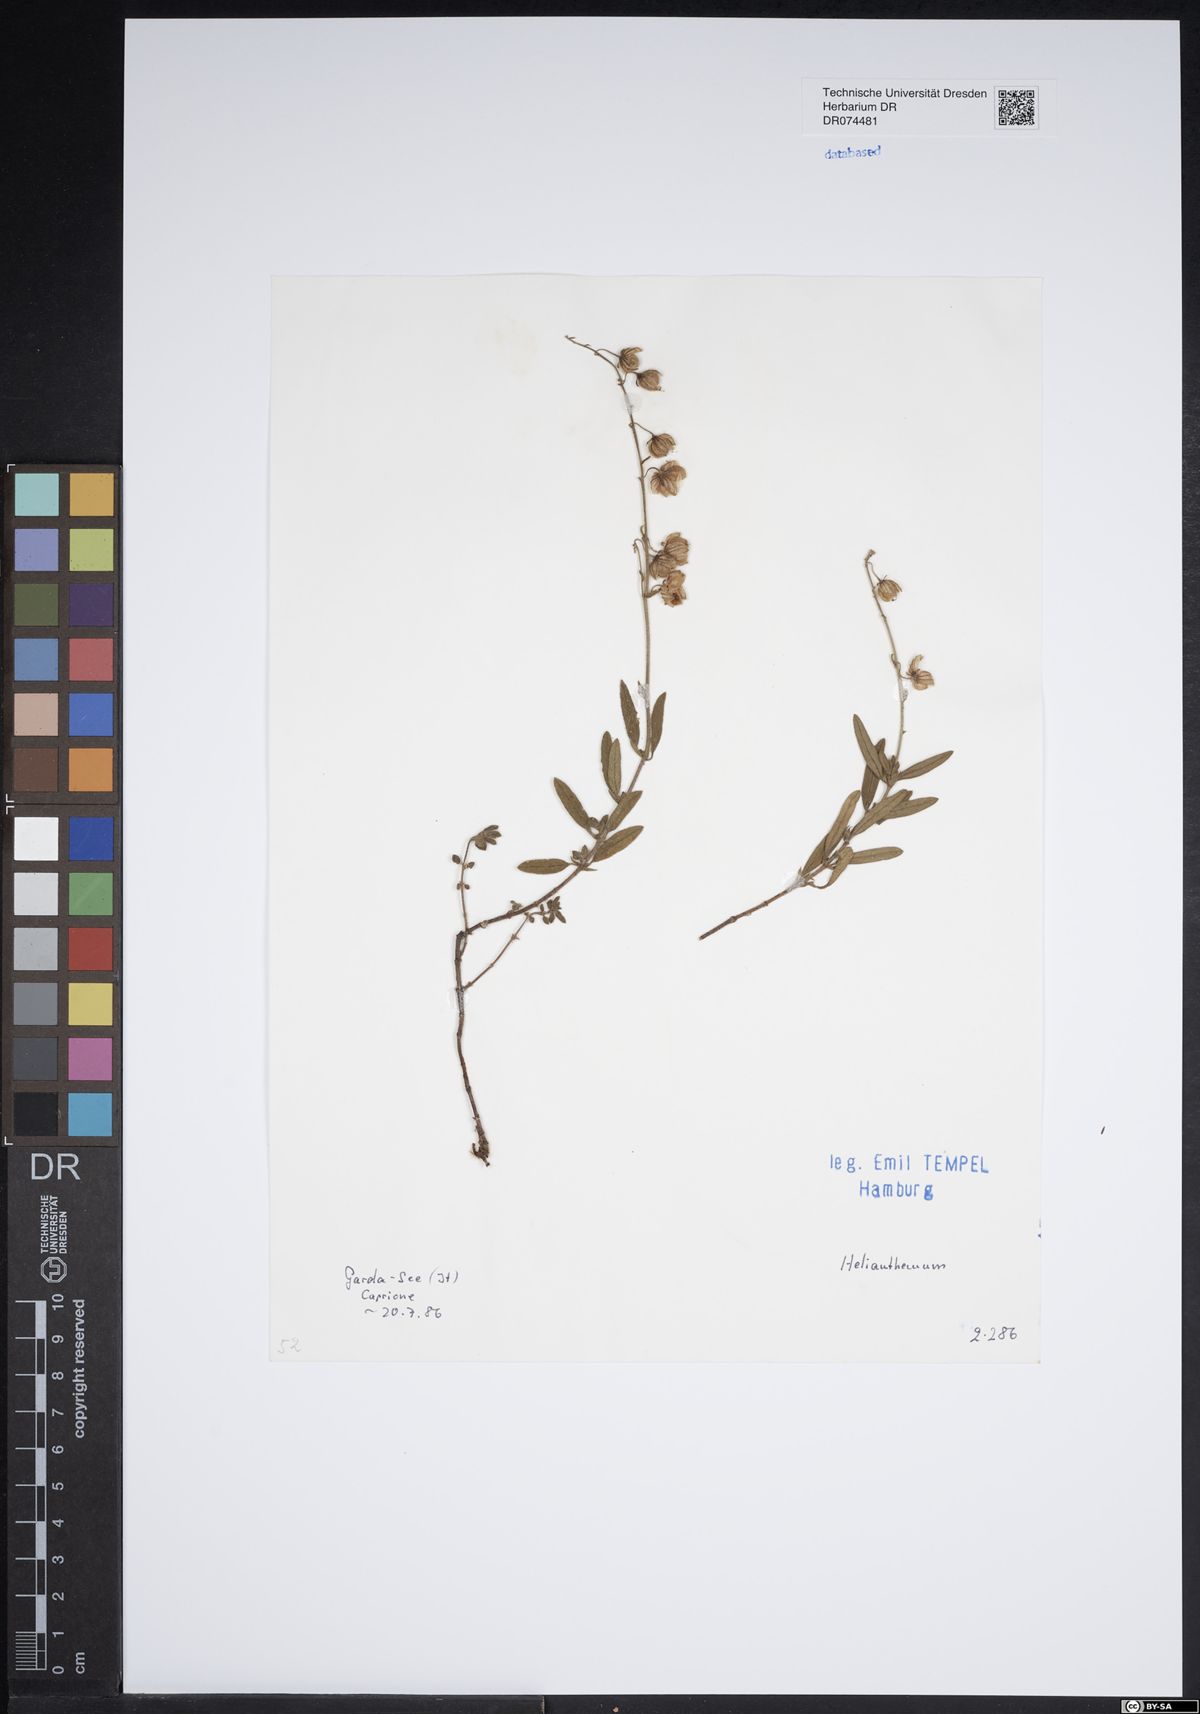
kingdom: Plantae
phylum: Tracheophyta
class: Magnoliopsida
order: Malvales
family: Cistaceae
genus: Helianthemum
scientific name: Helianthemum
